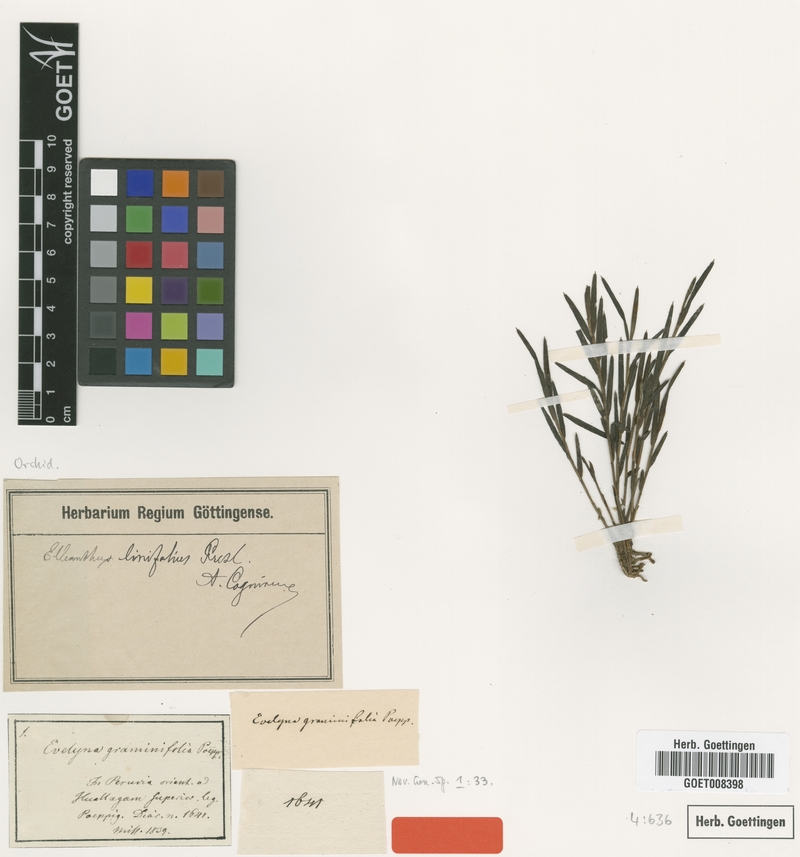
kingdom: Plantae
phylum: Tracheophyta
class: Liliopsida
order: Asparagales
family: Orchidaceae
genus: Elleanthus
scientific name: Elleanthus linifolius
